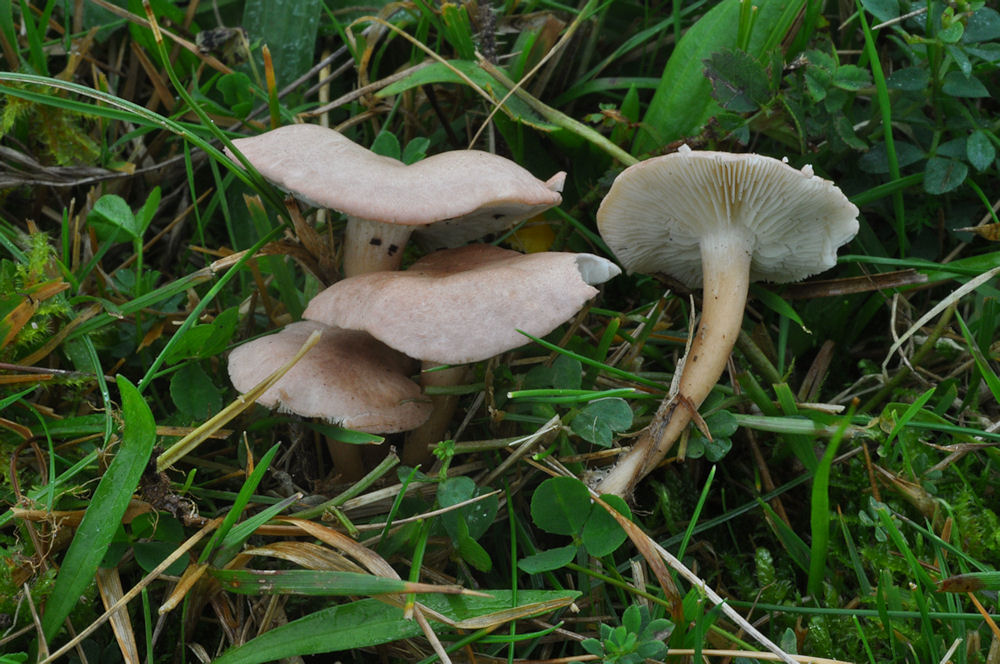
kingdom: Fungi
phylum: Basidiomycota
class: Agaricomycetes
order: Agaricales
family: Lyophyllaceae
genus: Calocybe
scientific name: Calocybe carnea
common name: rosa fagerhat
